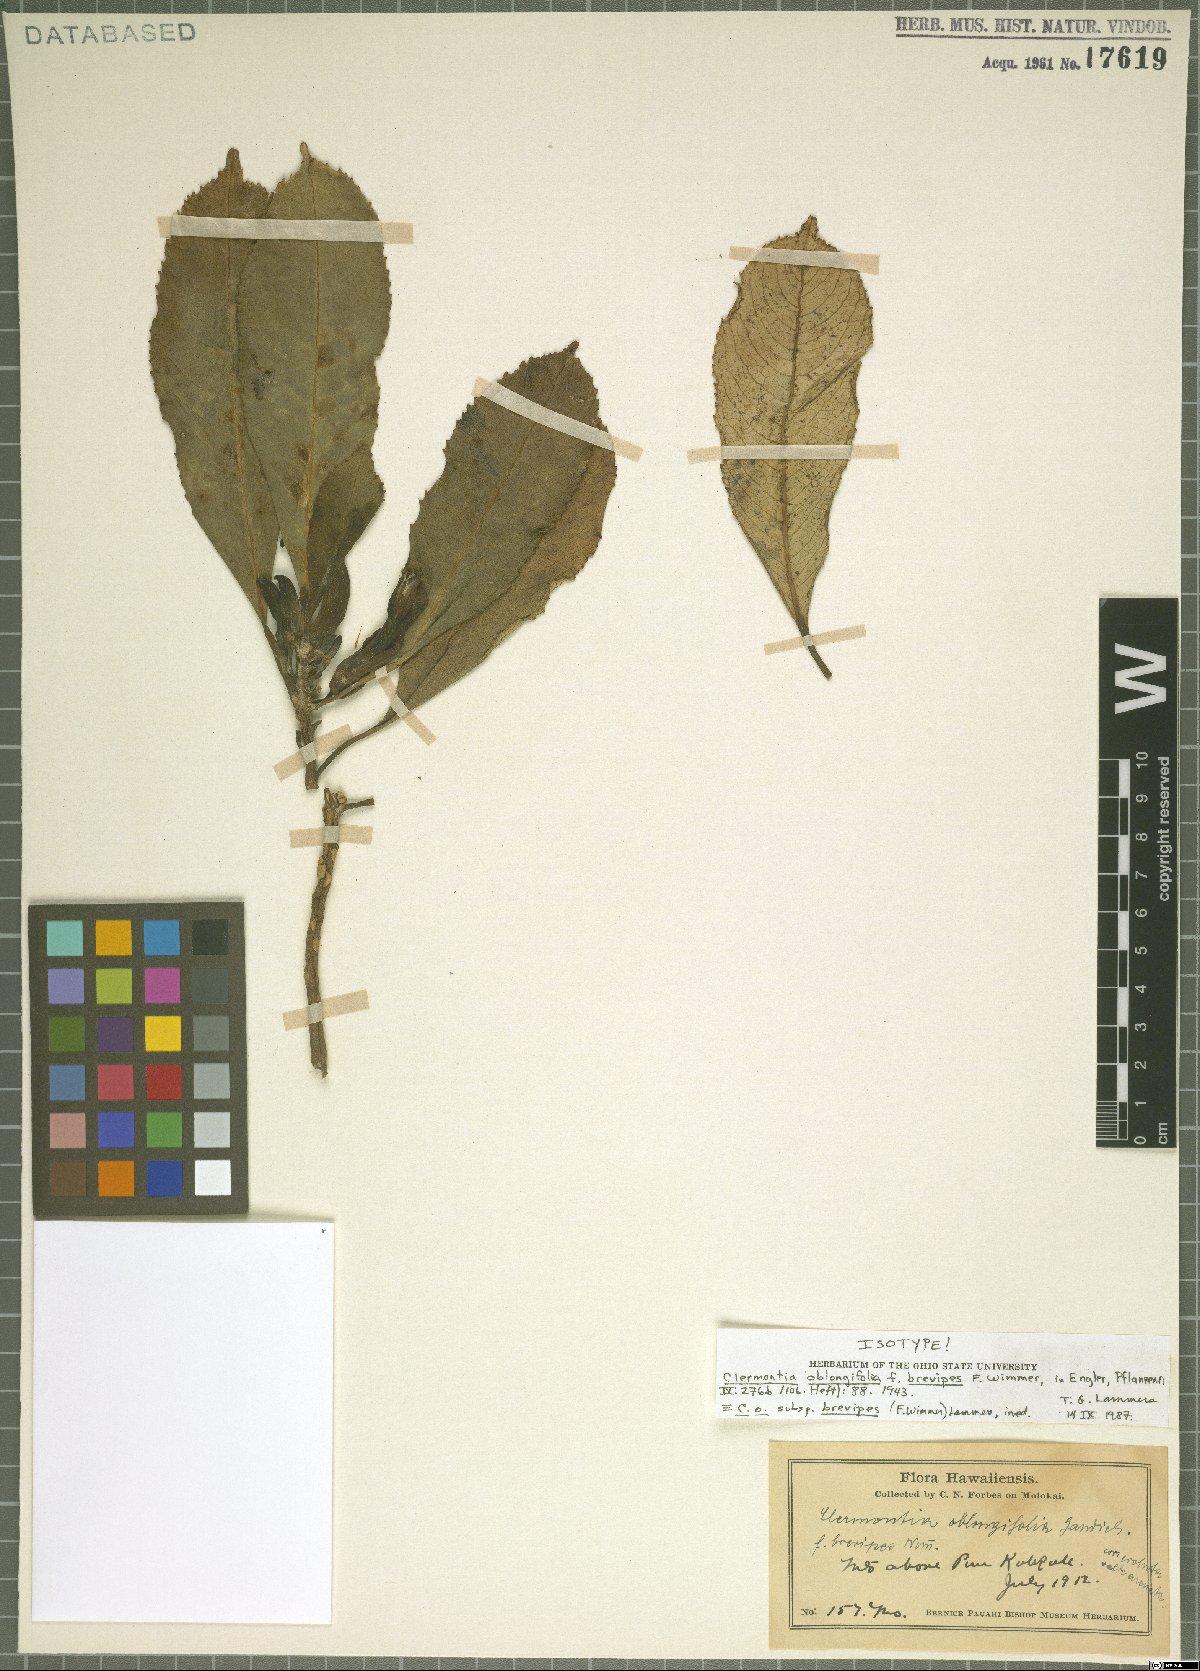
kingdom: Plantae
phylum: Tracheophyta
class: Magnoliopsida
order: Asterales
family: Campanulaceae
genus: Clermontia
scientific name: Clermontia oblongifolia
